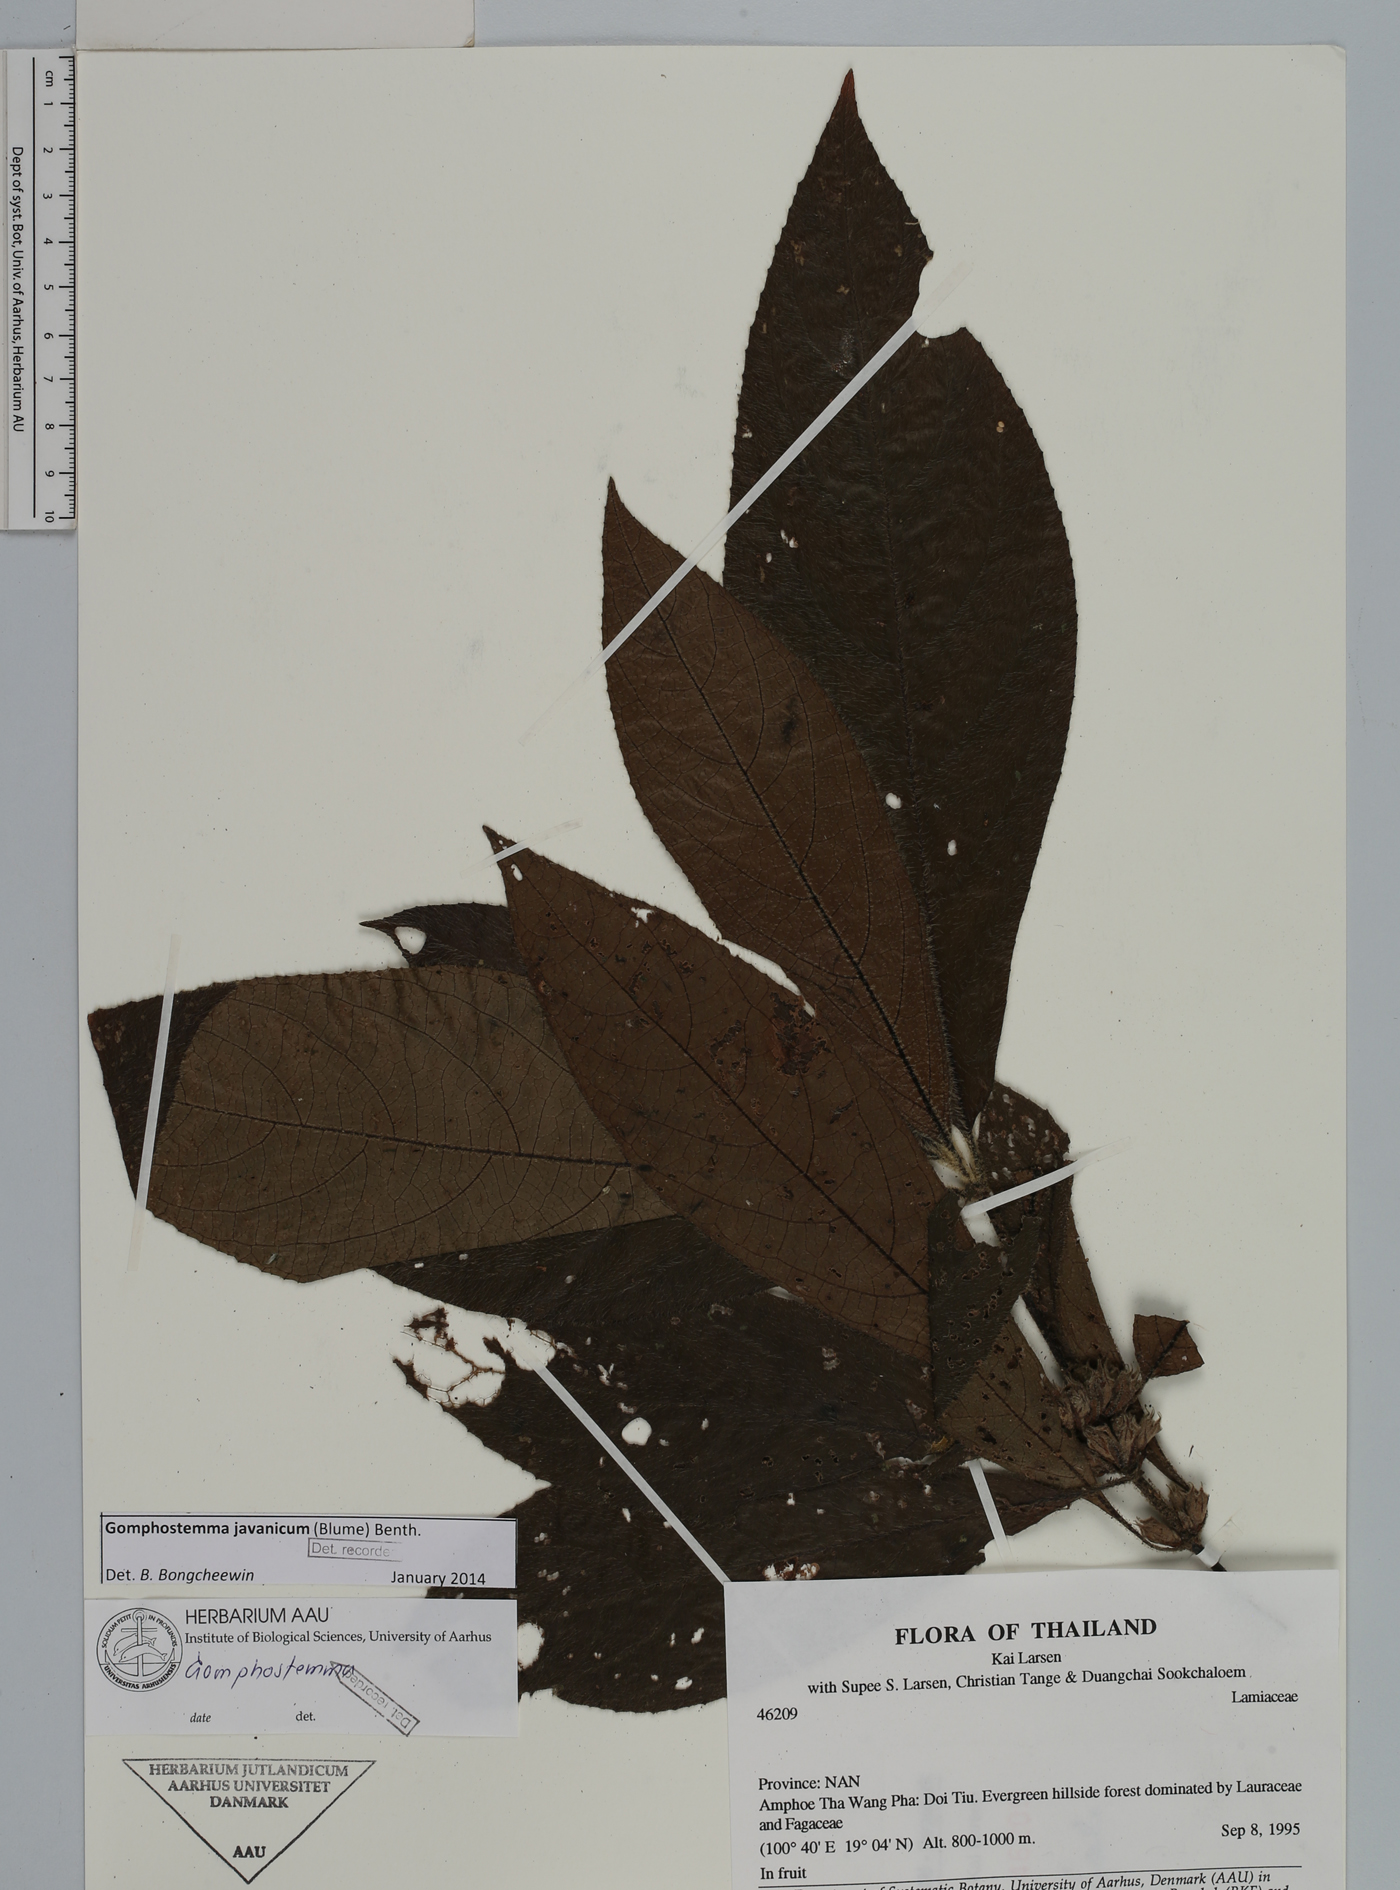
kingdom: Plantae
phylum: Tracheophyta
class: Magnoliopsida
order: Lamiales
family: Lamiaceae
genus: Gomphostemma
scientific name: Gomphostemma javanicum
